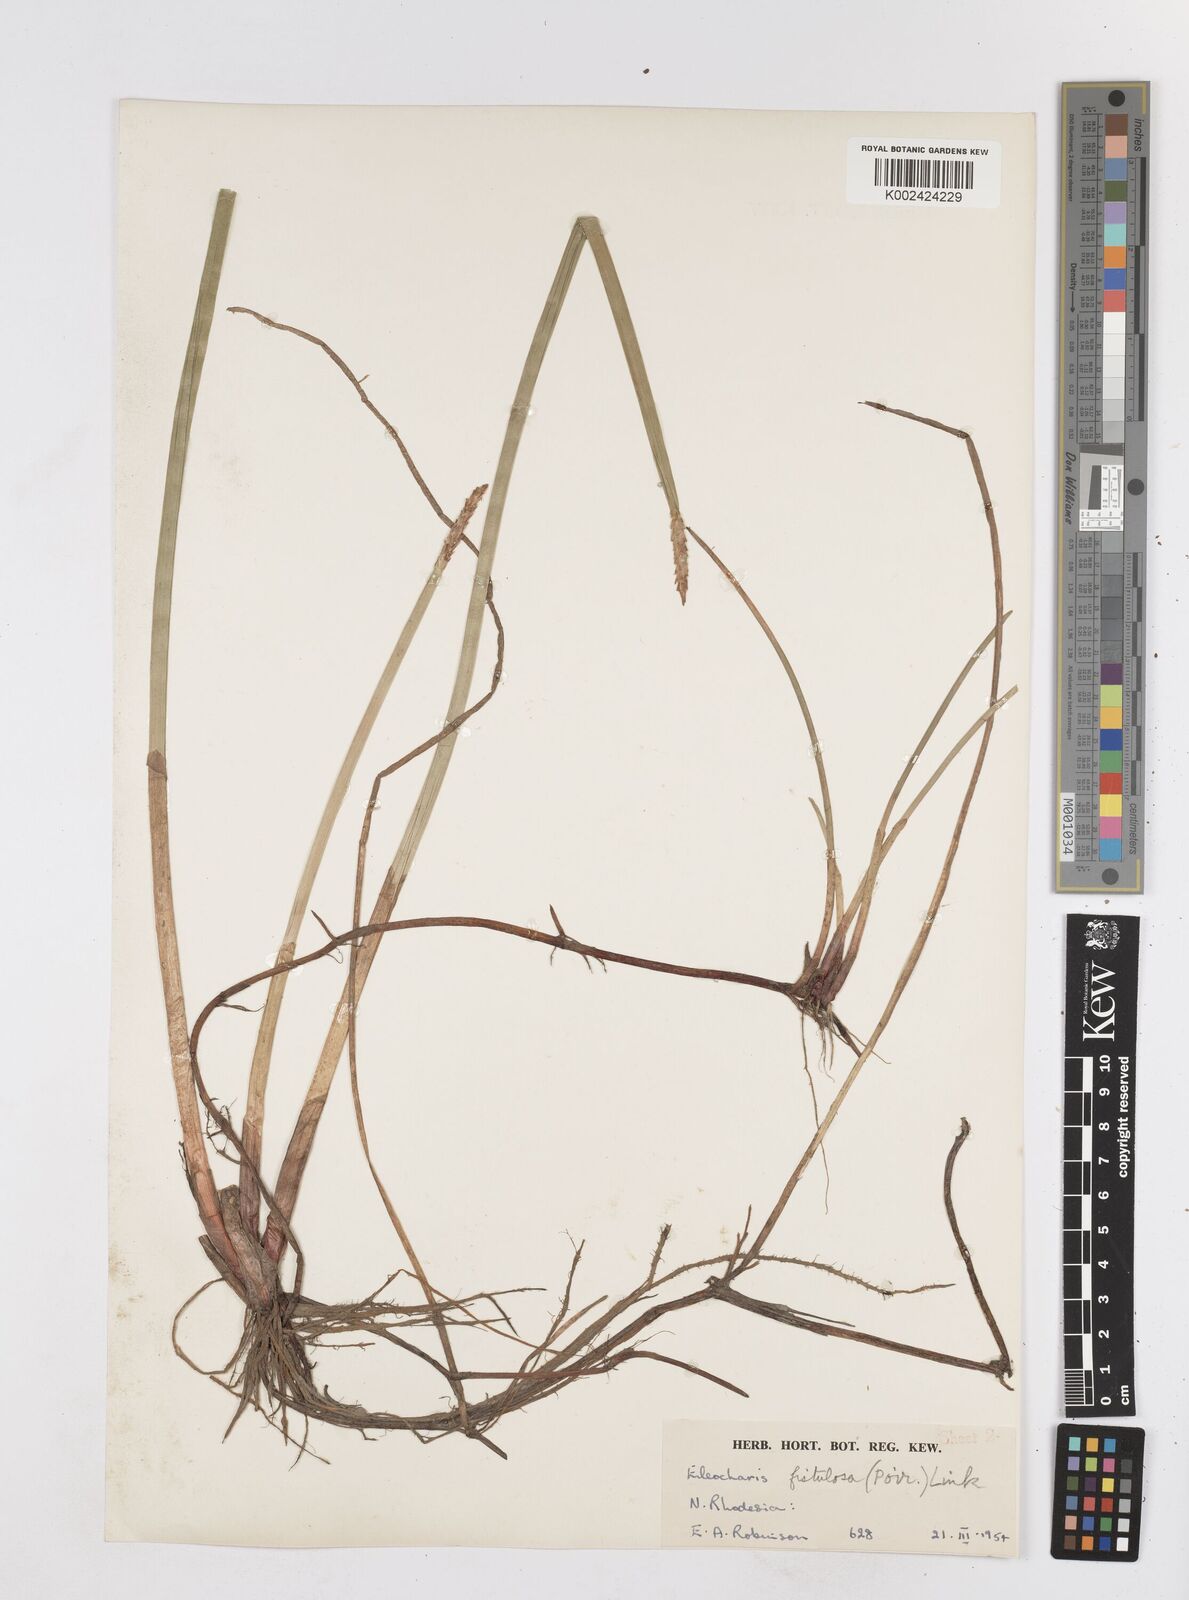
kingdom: Plantae
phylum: Tracheophyta
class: Liliopsida
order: Poales
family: Cyperaceae
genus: Eleocharis
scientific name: Eleocharis acutangula
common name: Acute spikerush
